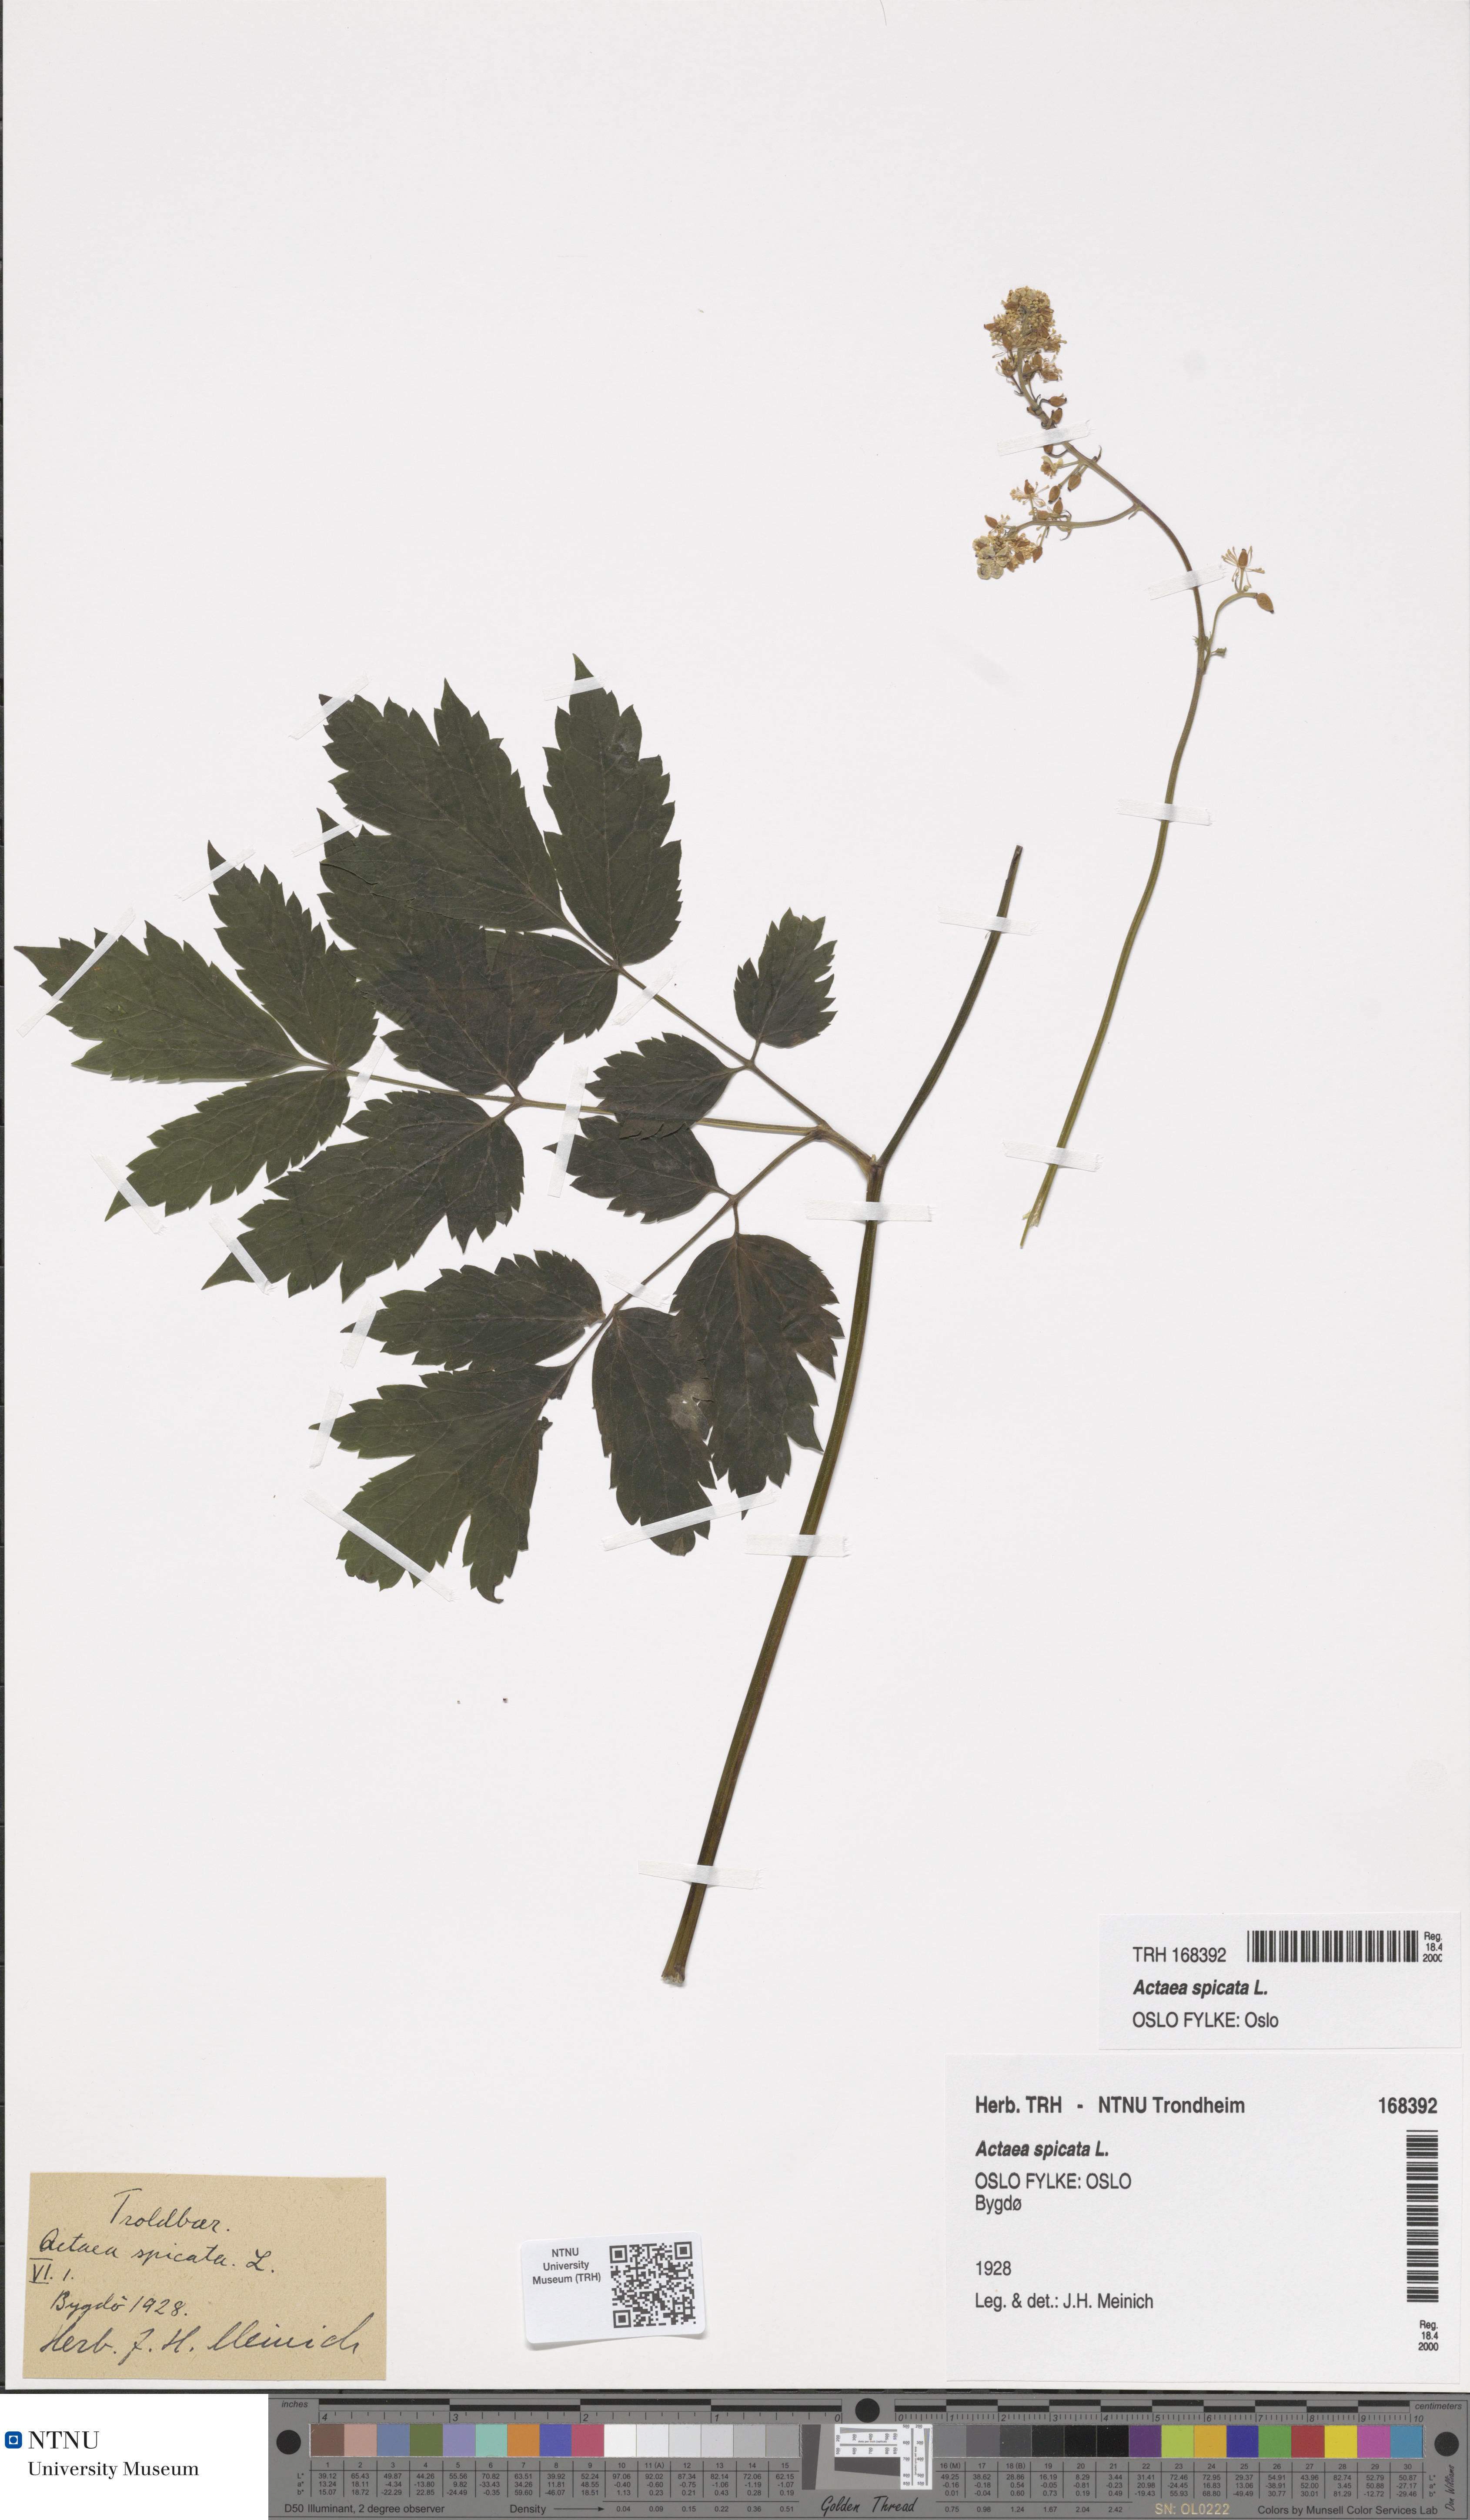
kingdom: Plantae
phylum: Tracheophyta
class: Magnoliopsida
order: Ranunculales
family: Ranunculaceae
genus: Actaea
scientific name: Actaea spicata
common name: Baneberry
